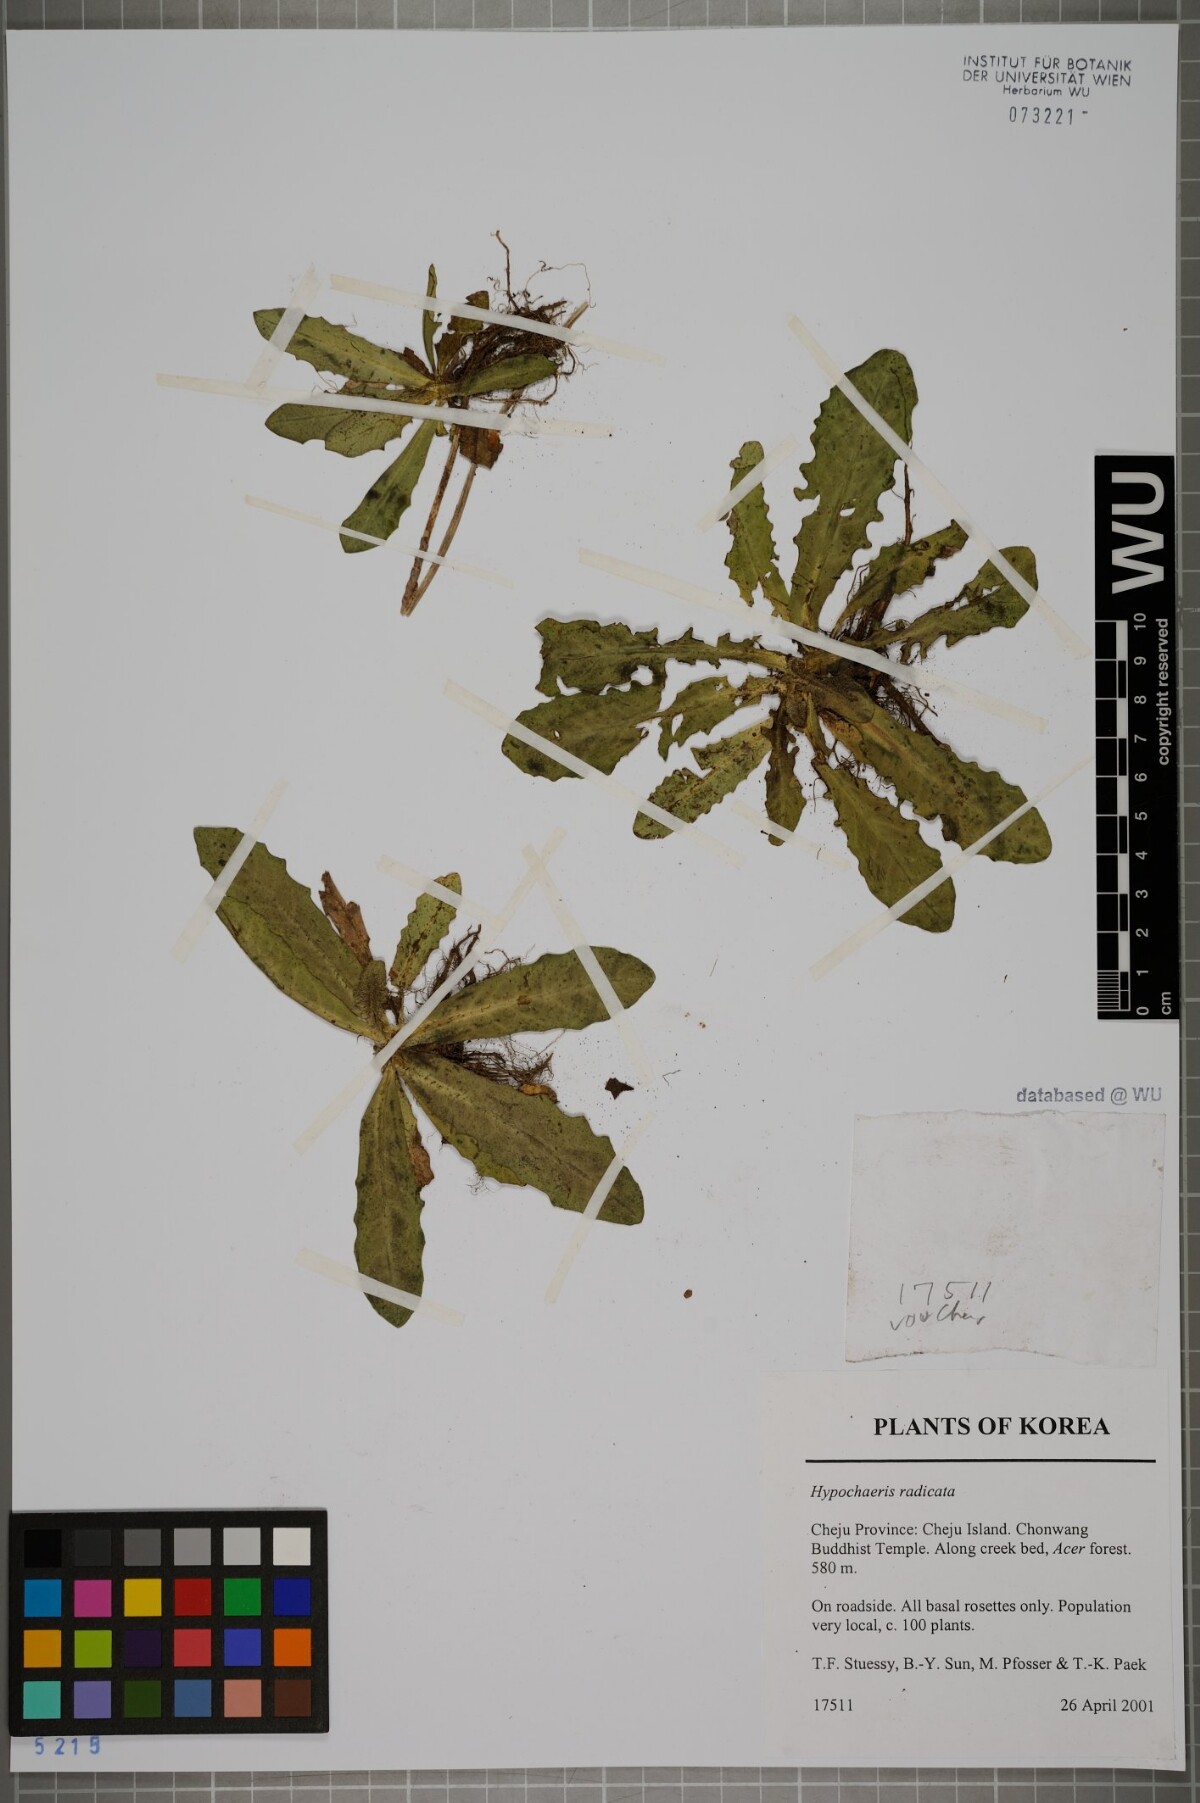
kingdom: Plantae
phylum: Tracheophyta
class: Magnoliopsida
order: Asterales
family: Asteraceae
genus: Hypochaeris
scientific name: Hypochaeris radicata
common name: Flatweed
